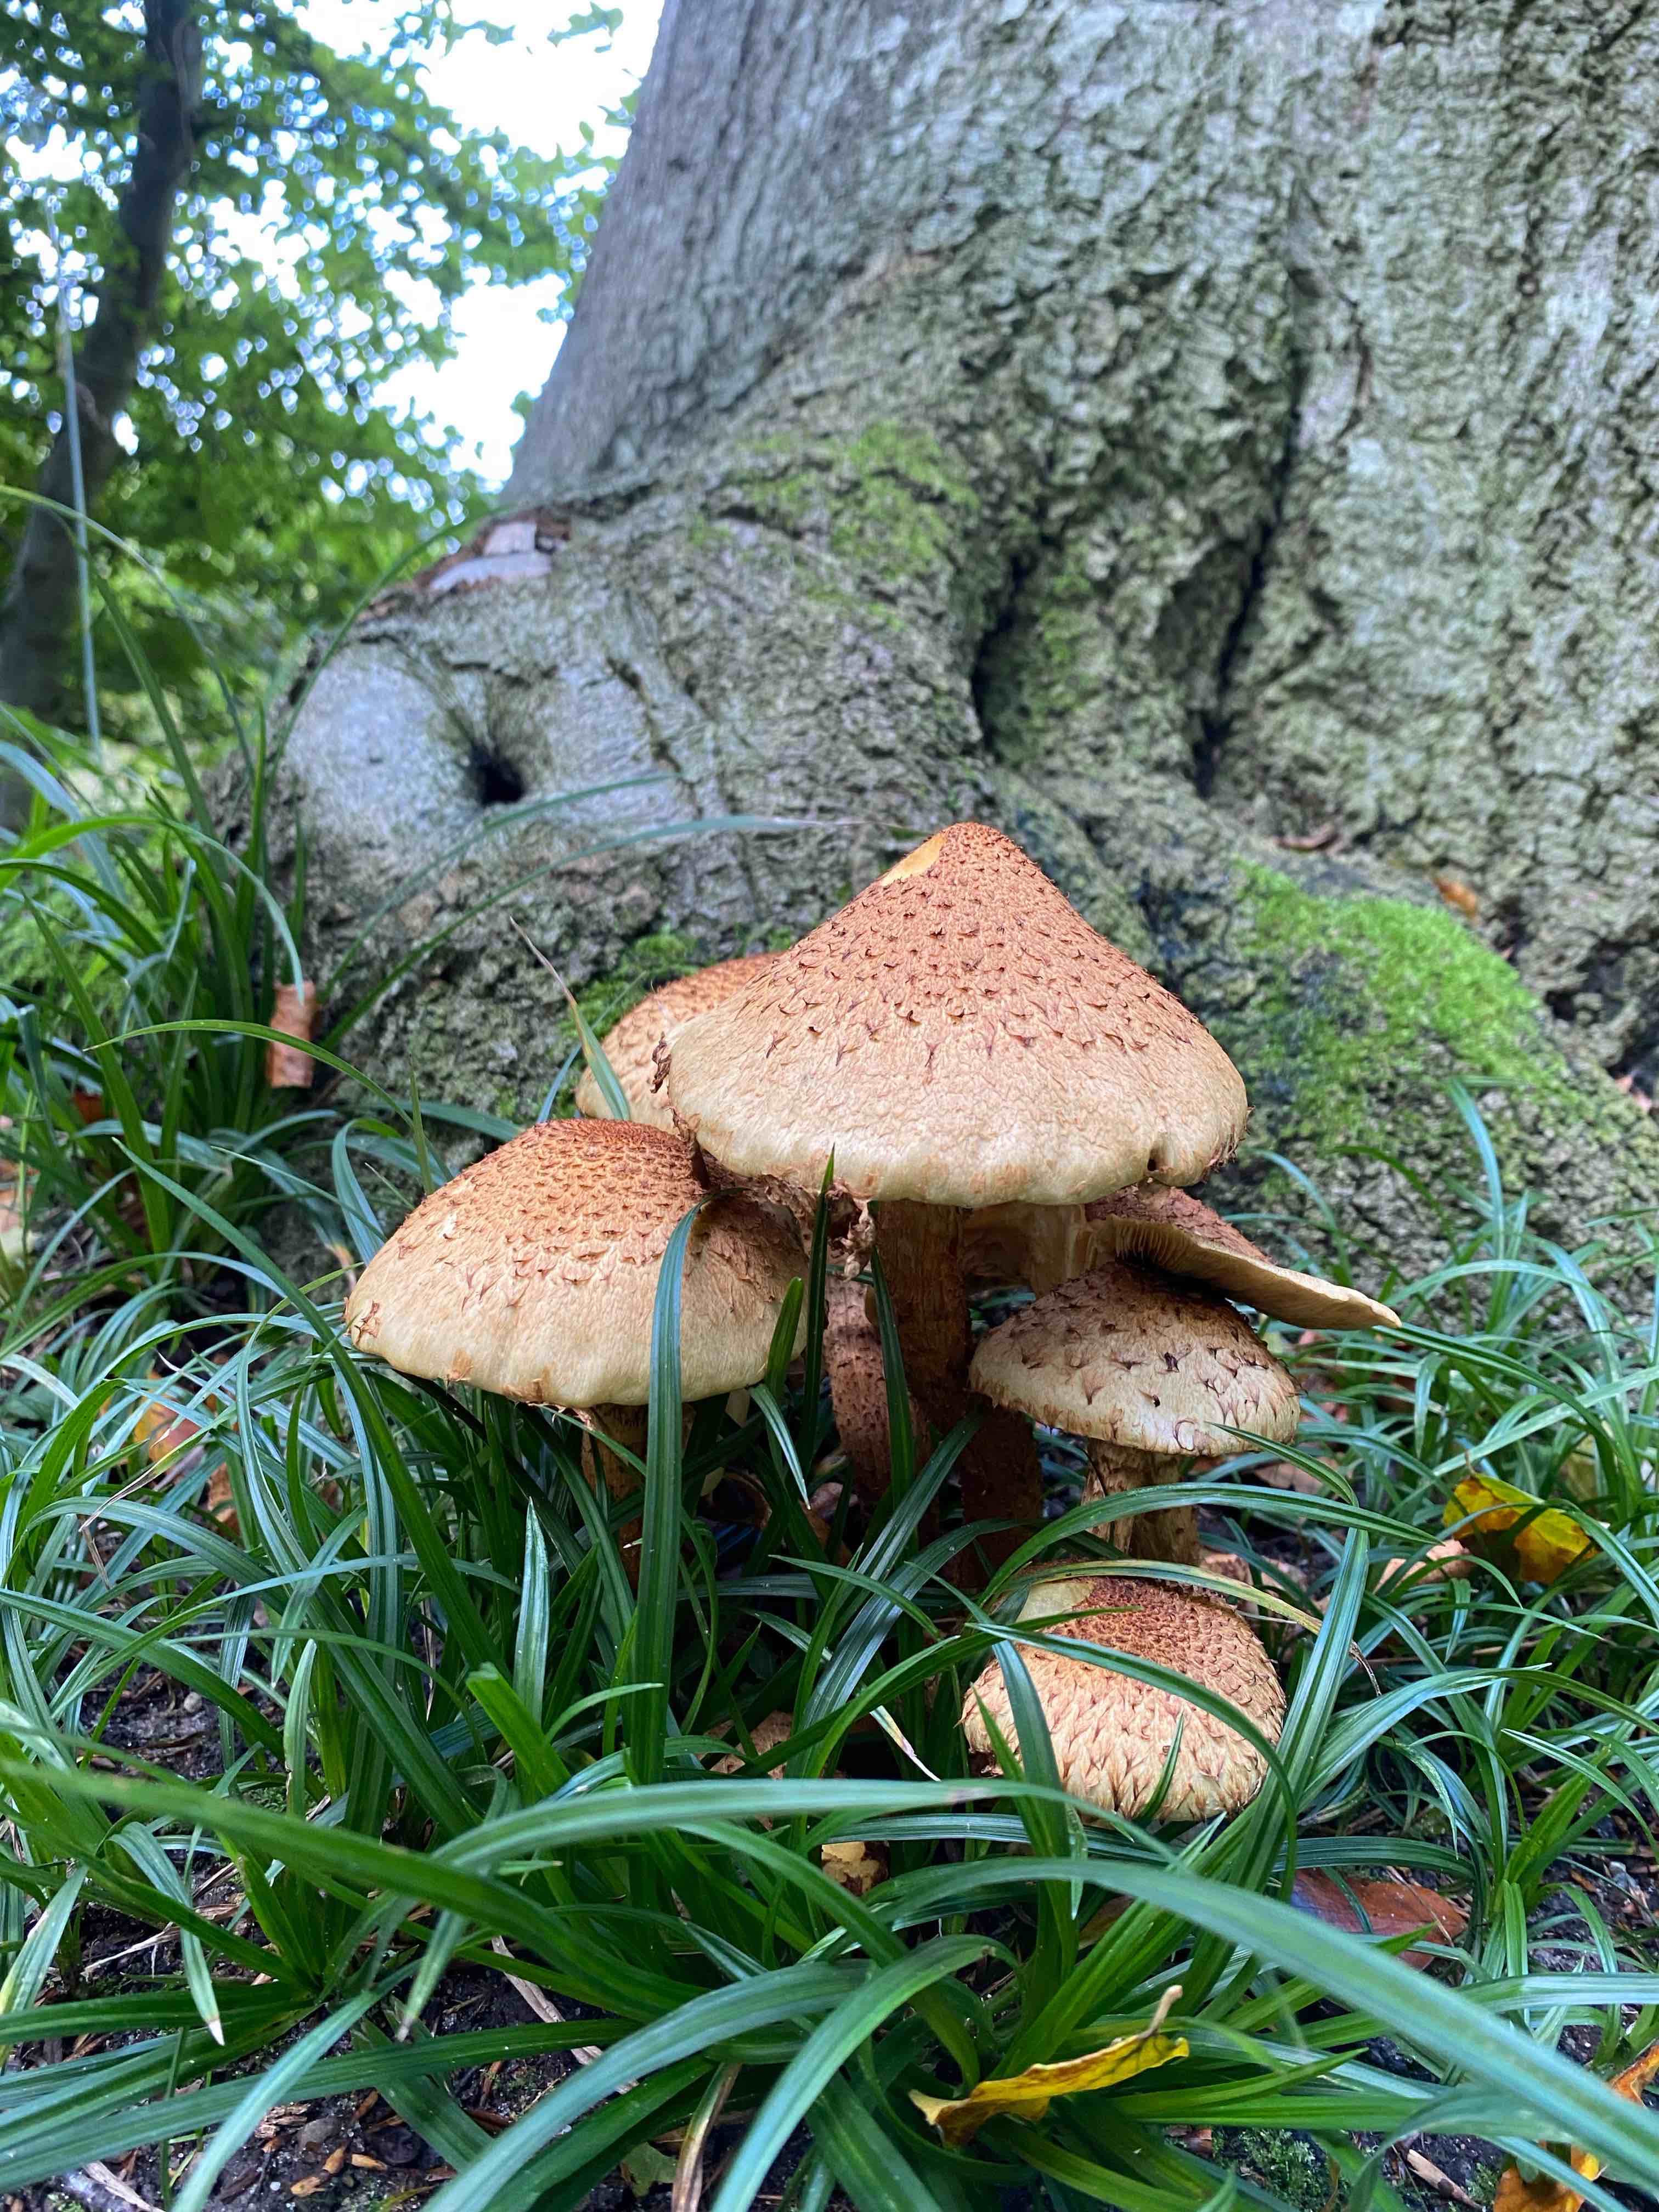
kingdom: Fungi
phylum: Basidiomycota
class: Agaricomycetes
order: Agaricales
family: Strophariaceae
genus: Pholiota
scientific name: Pholiota squarrosa
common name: krumskællet skælhat
